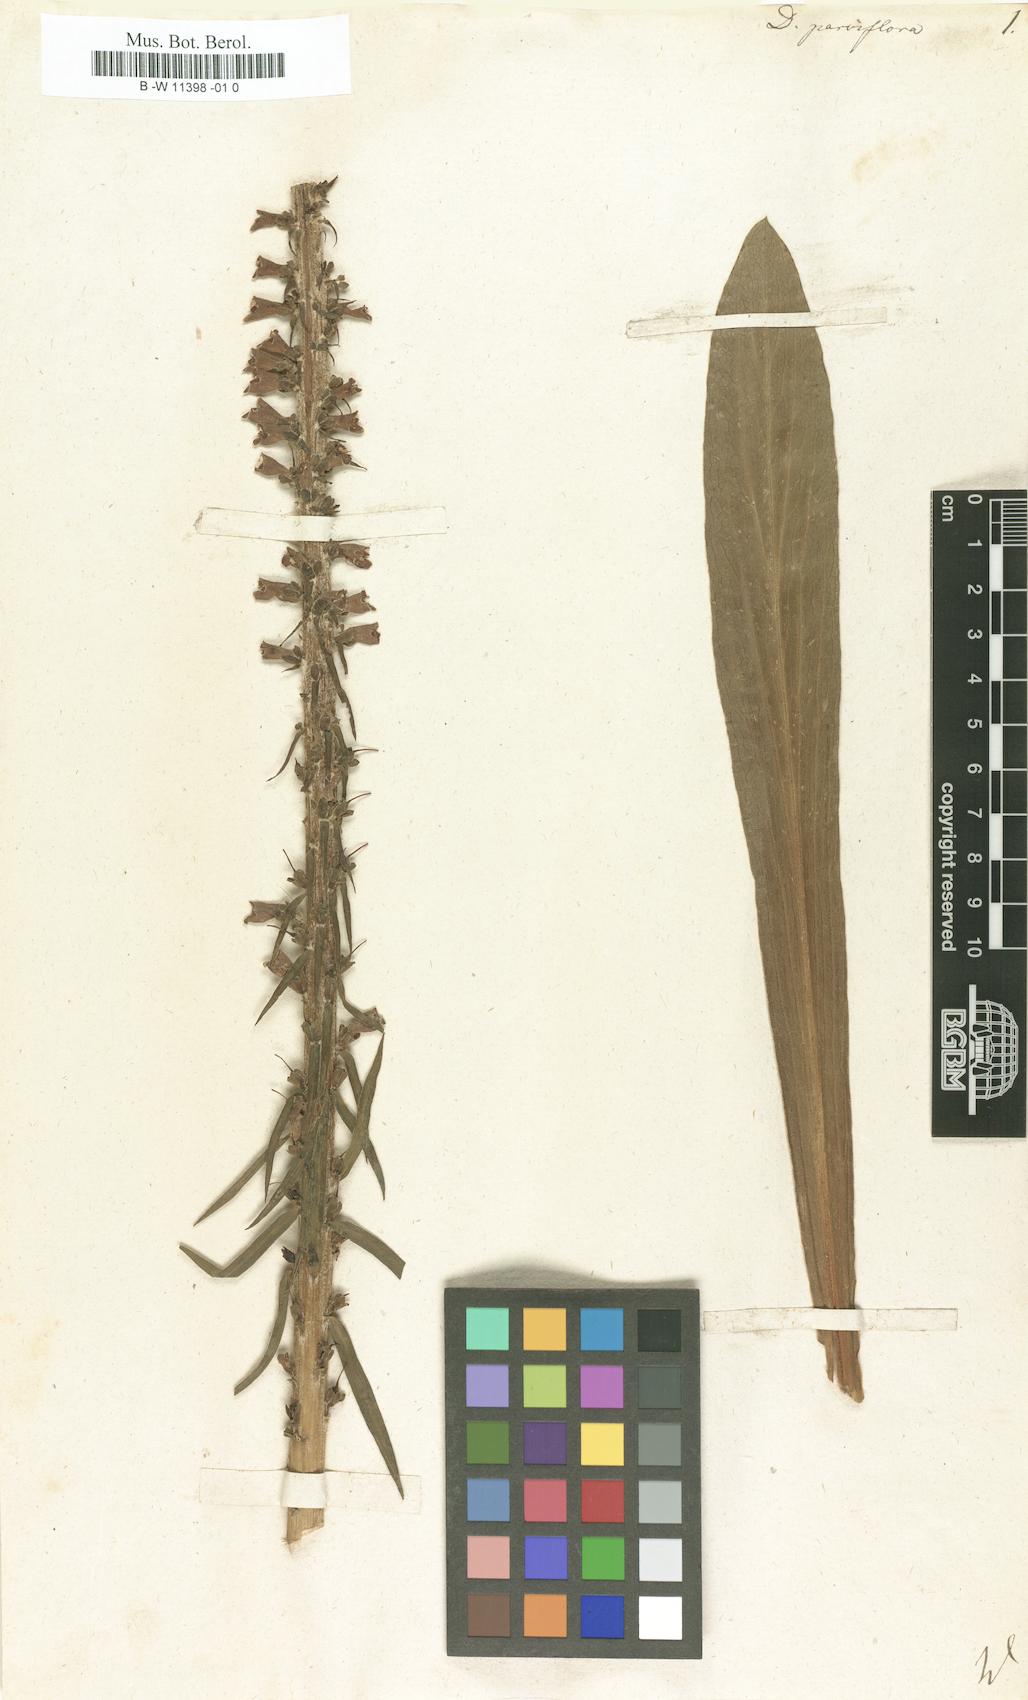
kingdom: Plantae
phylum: Tracheophyta
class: Magnoliopsida
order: Lamiales
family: Plantaginaceae
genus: Digitalis
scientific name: Digitalis parviflora
